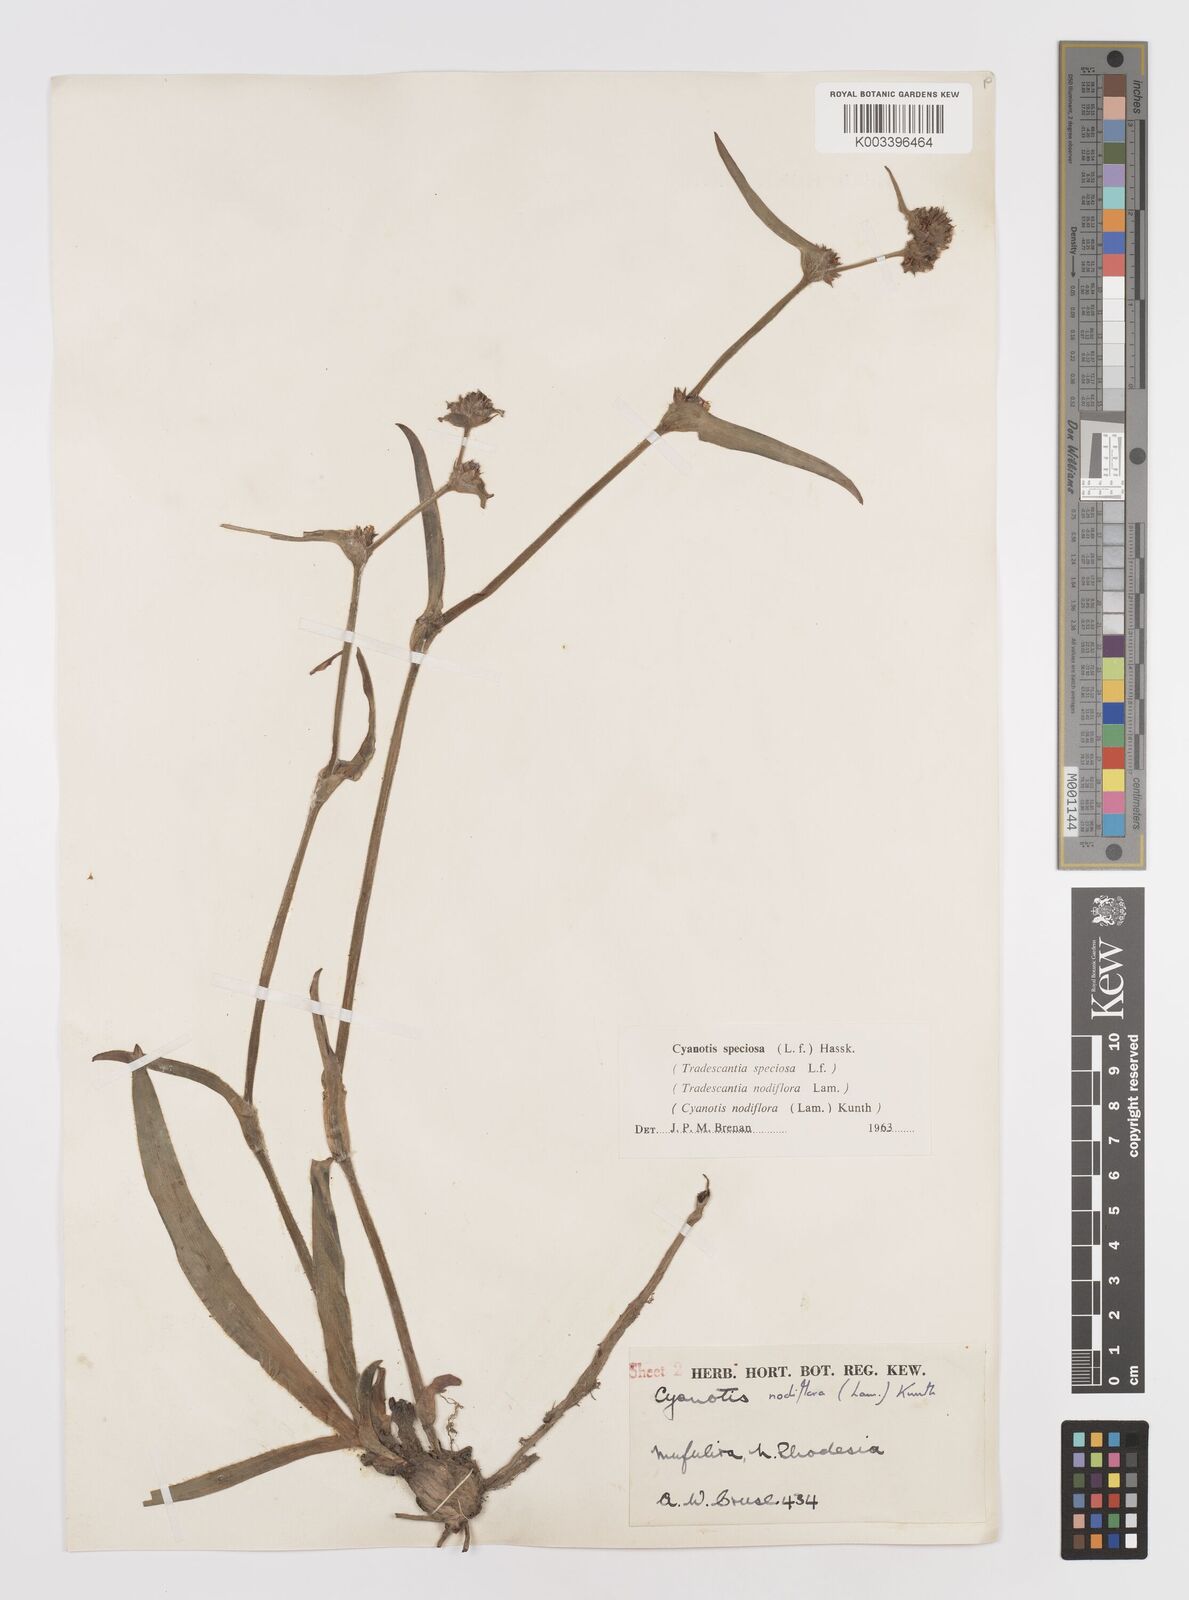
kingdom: Plantae
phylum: Tracheophyta
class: Liliopsida
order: Commelinales
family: Commelinaceae
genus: Cyanotis
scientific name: Cyanotis speciosa
